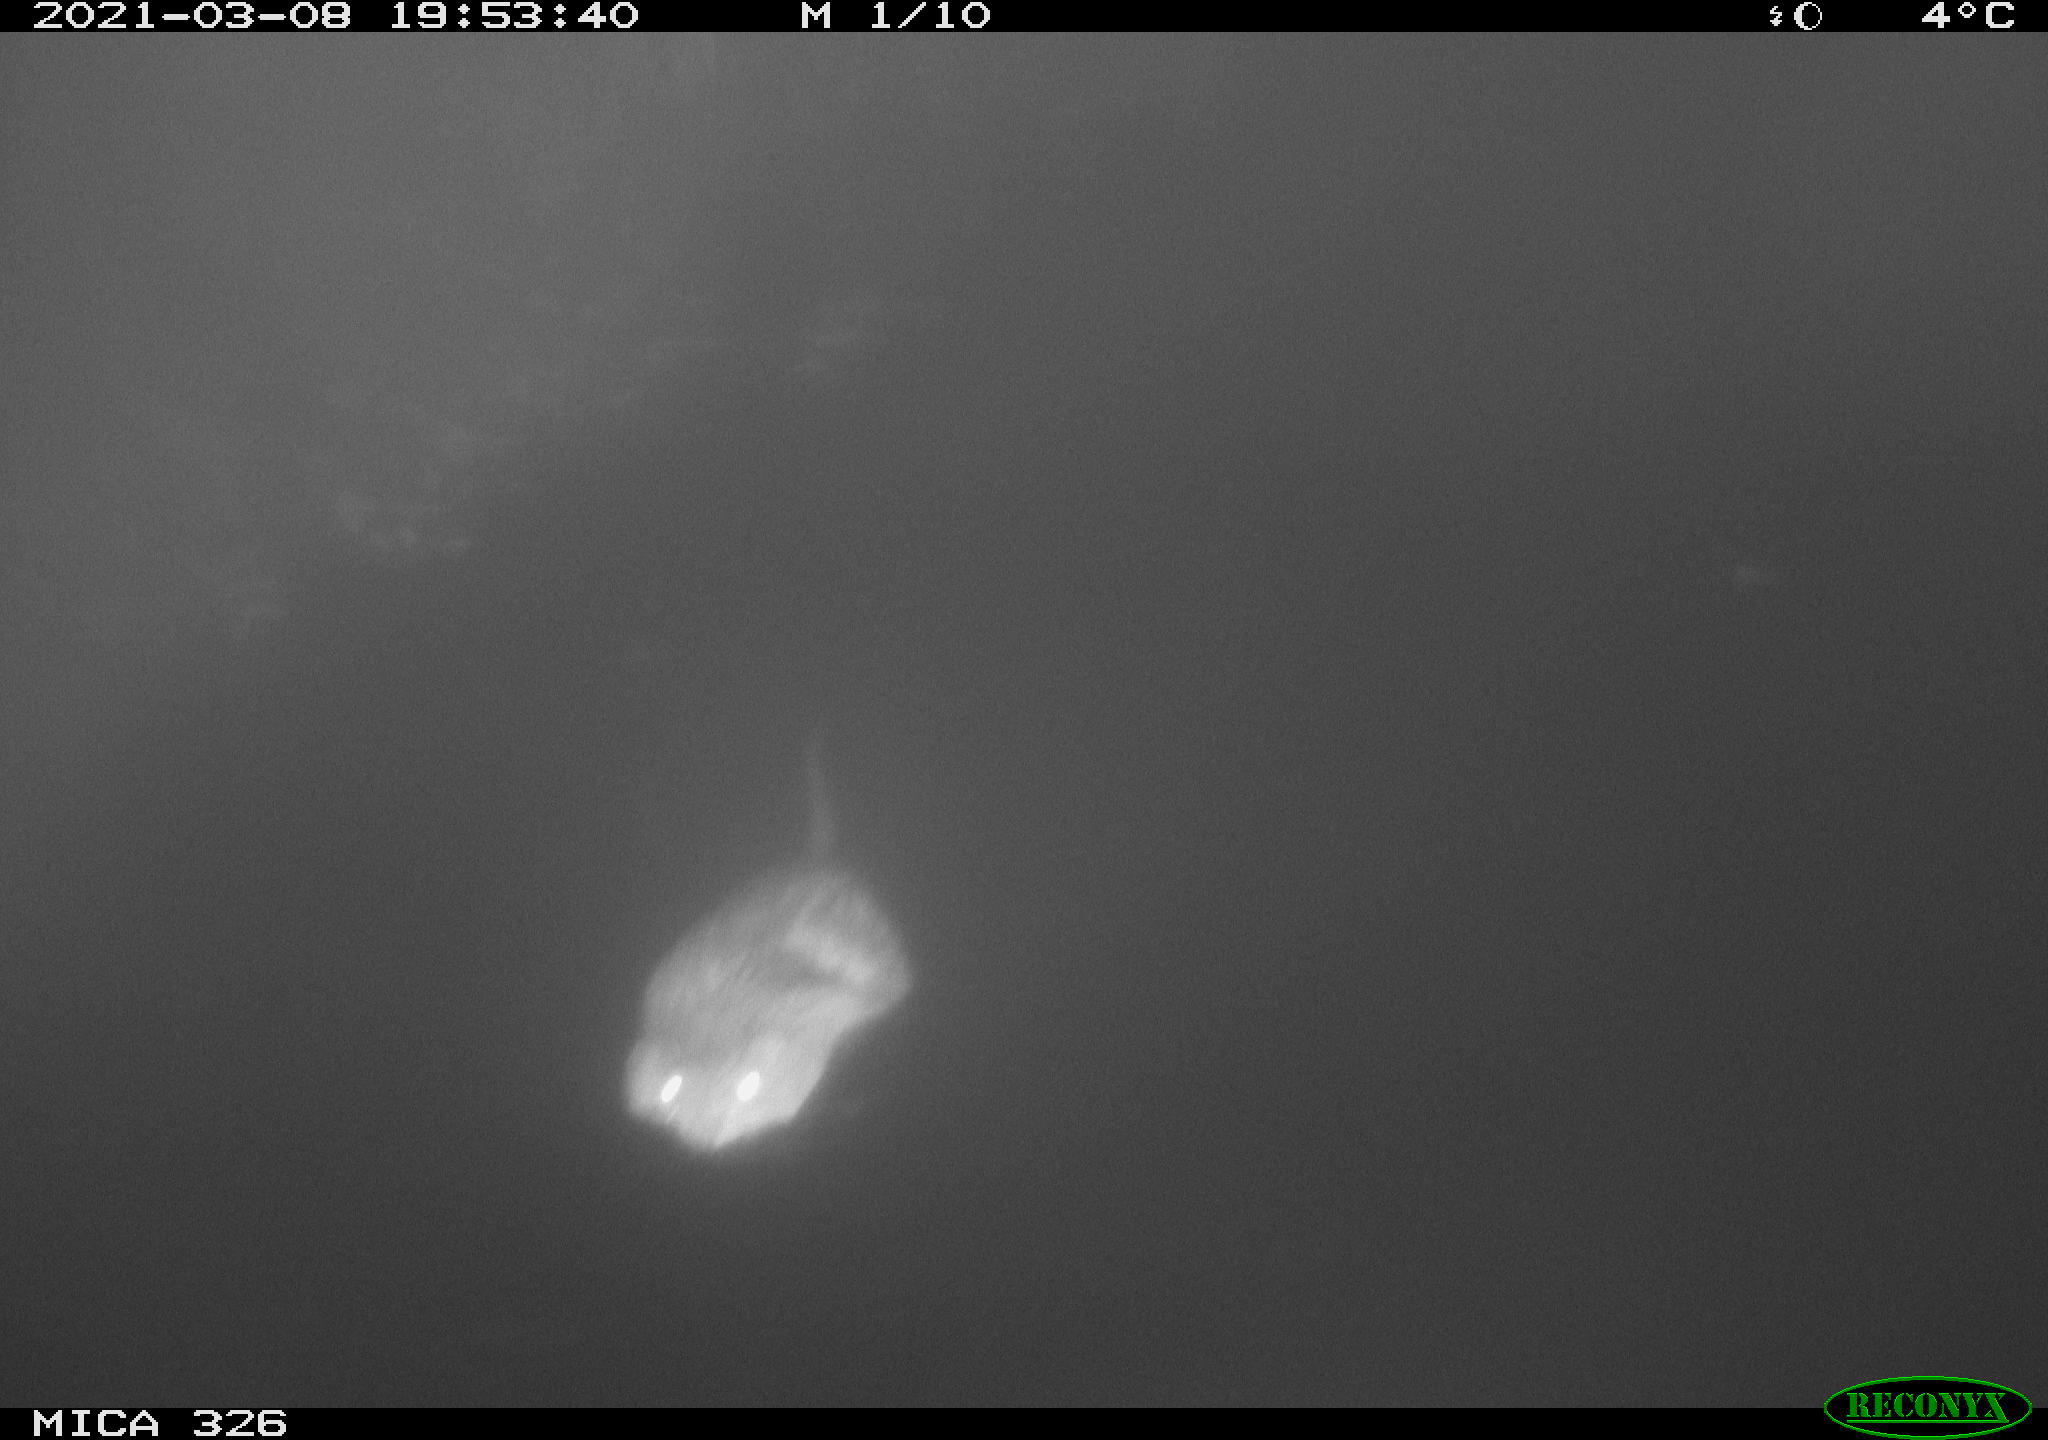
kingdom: Animalia
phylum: Chordata
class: Mammalia
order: Rodentia
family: Cricetidae
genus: Ondatra
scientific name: Ondatra zibethicus
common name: Muskrat
